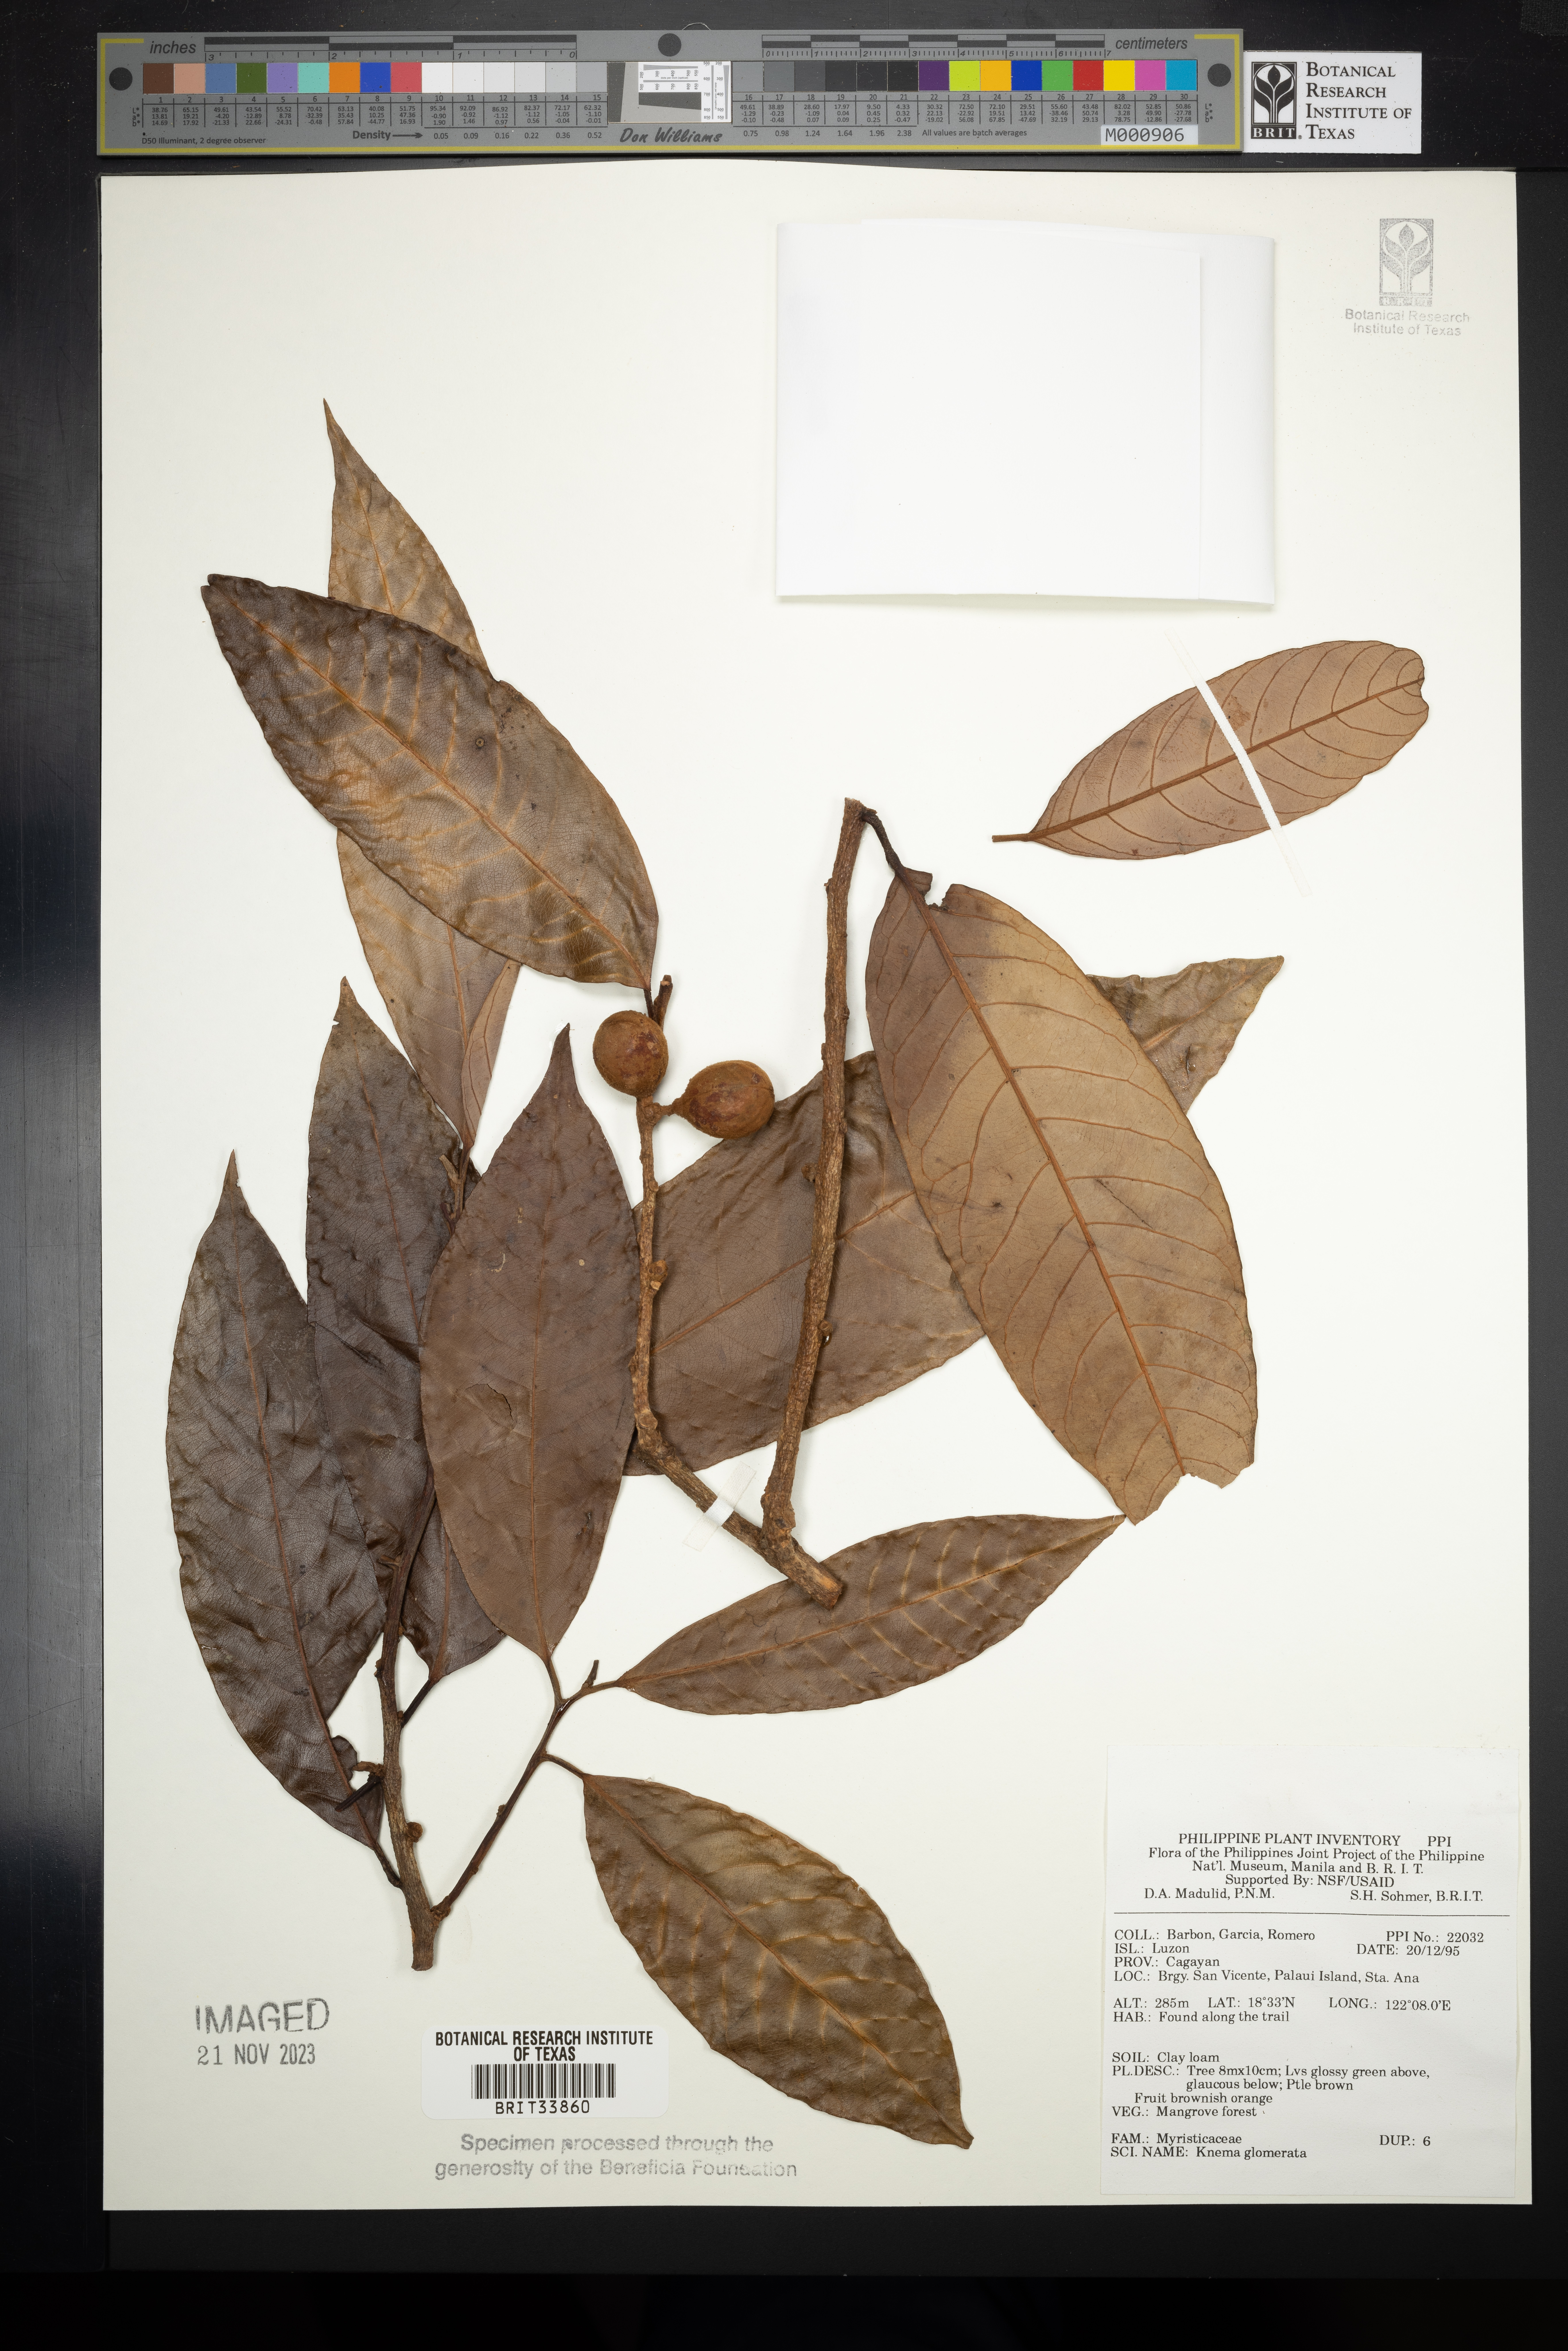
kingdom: Plantae
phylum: Tracheophyta
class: Magnoliopsida
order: Magnoliales
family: Myristicaceae
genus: Knema
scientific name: Knema glomerata
